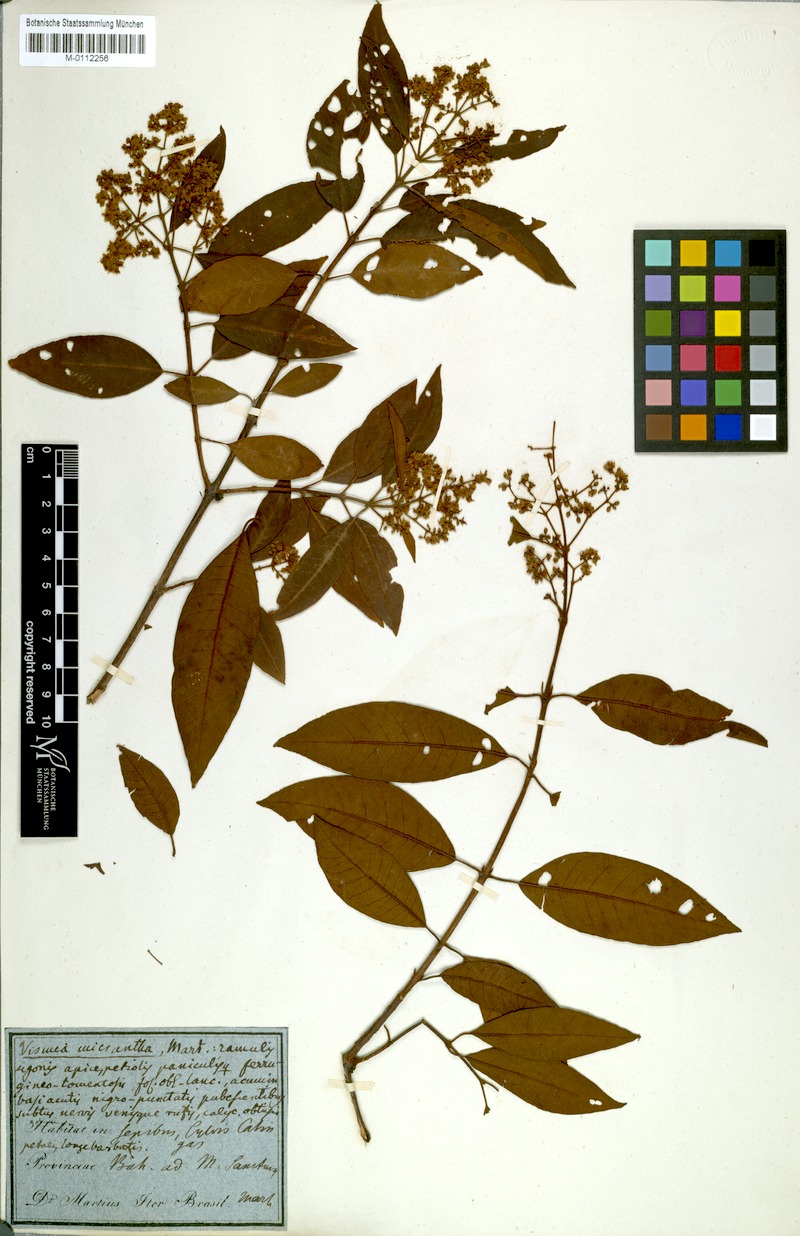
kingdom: Plantae
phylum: Tracheophyta
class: Magnoliopsida
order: Malpighiales
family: Hypericaceae
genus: Vismia
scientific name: Vismia micrantha
